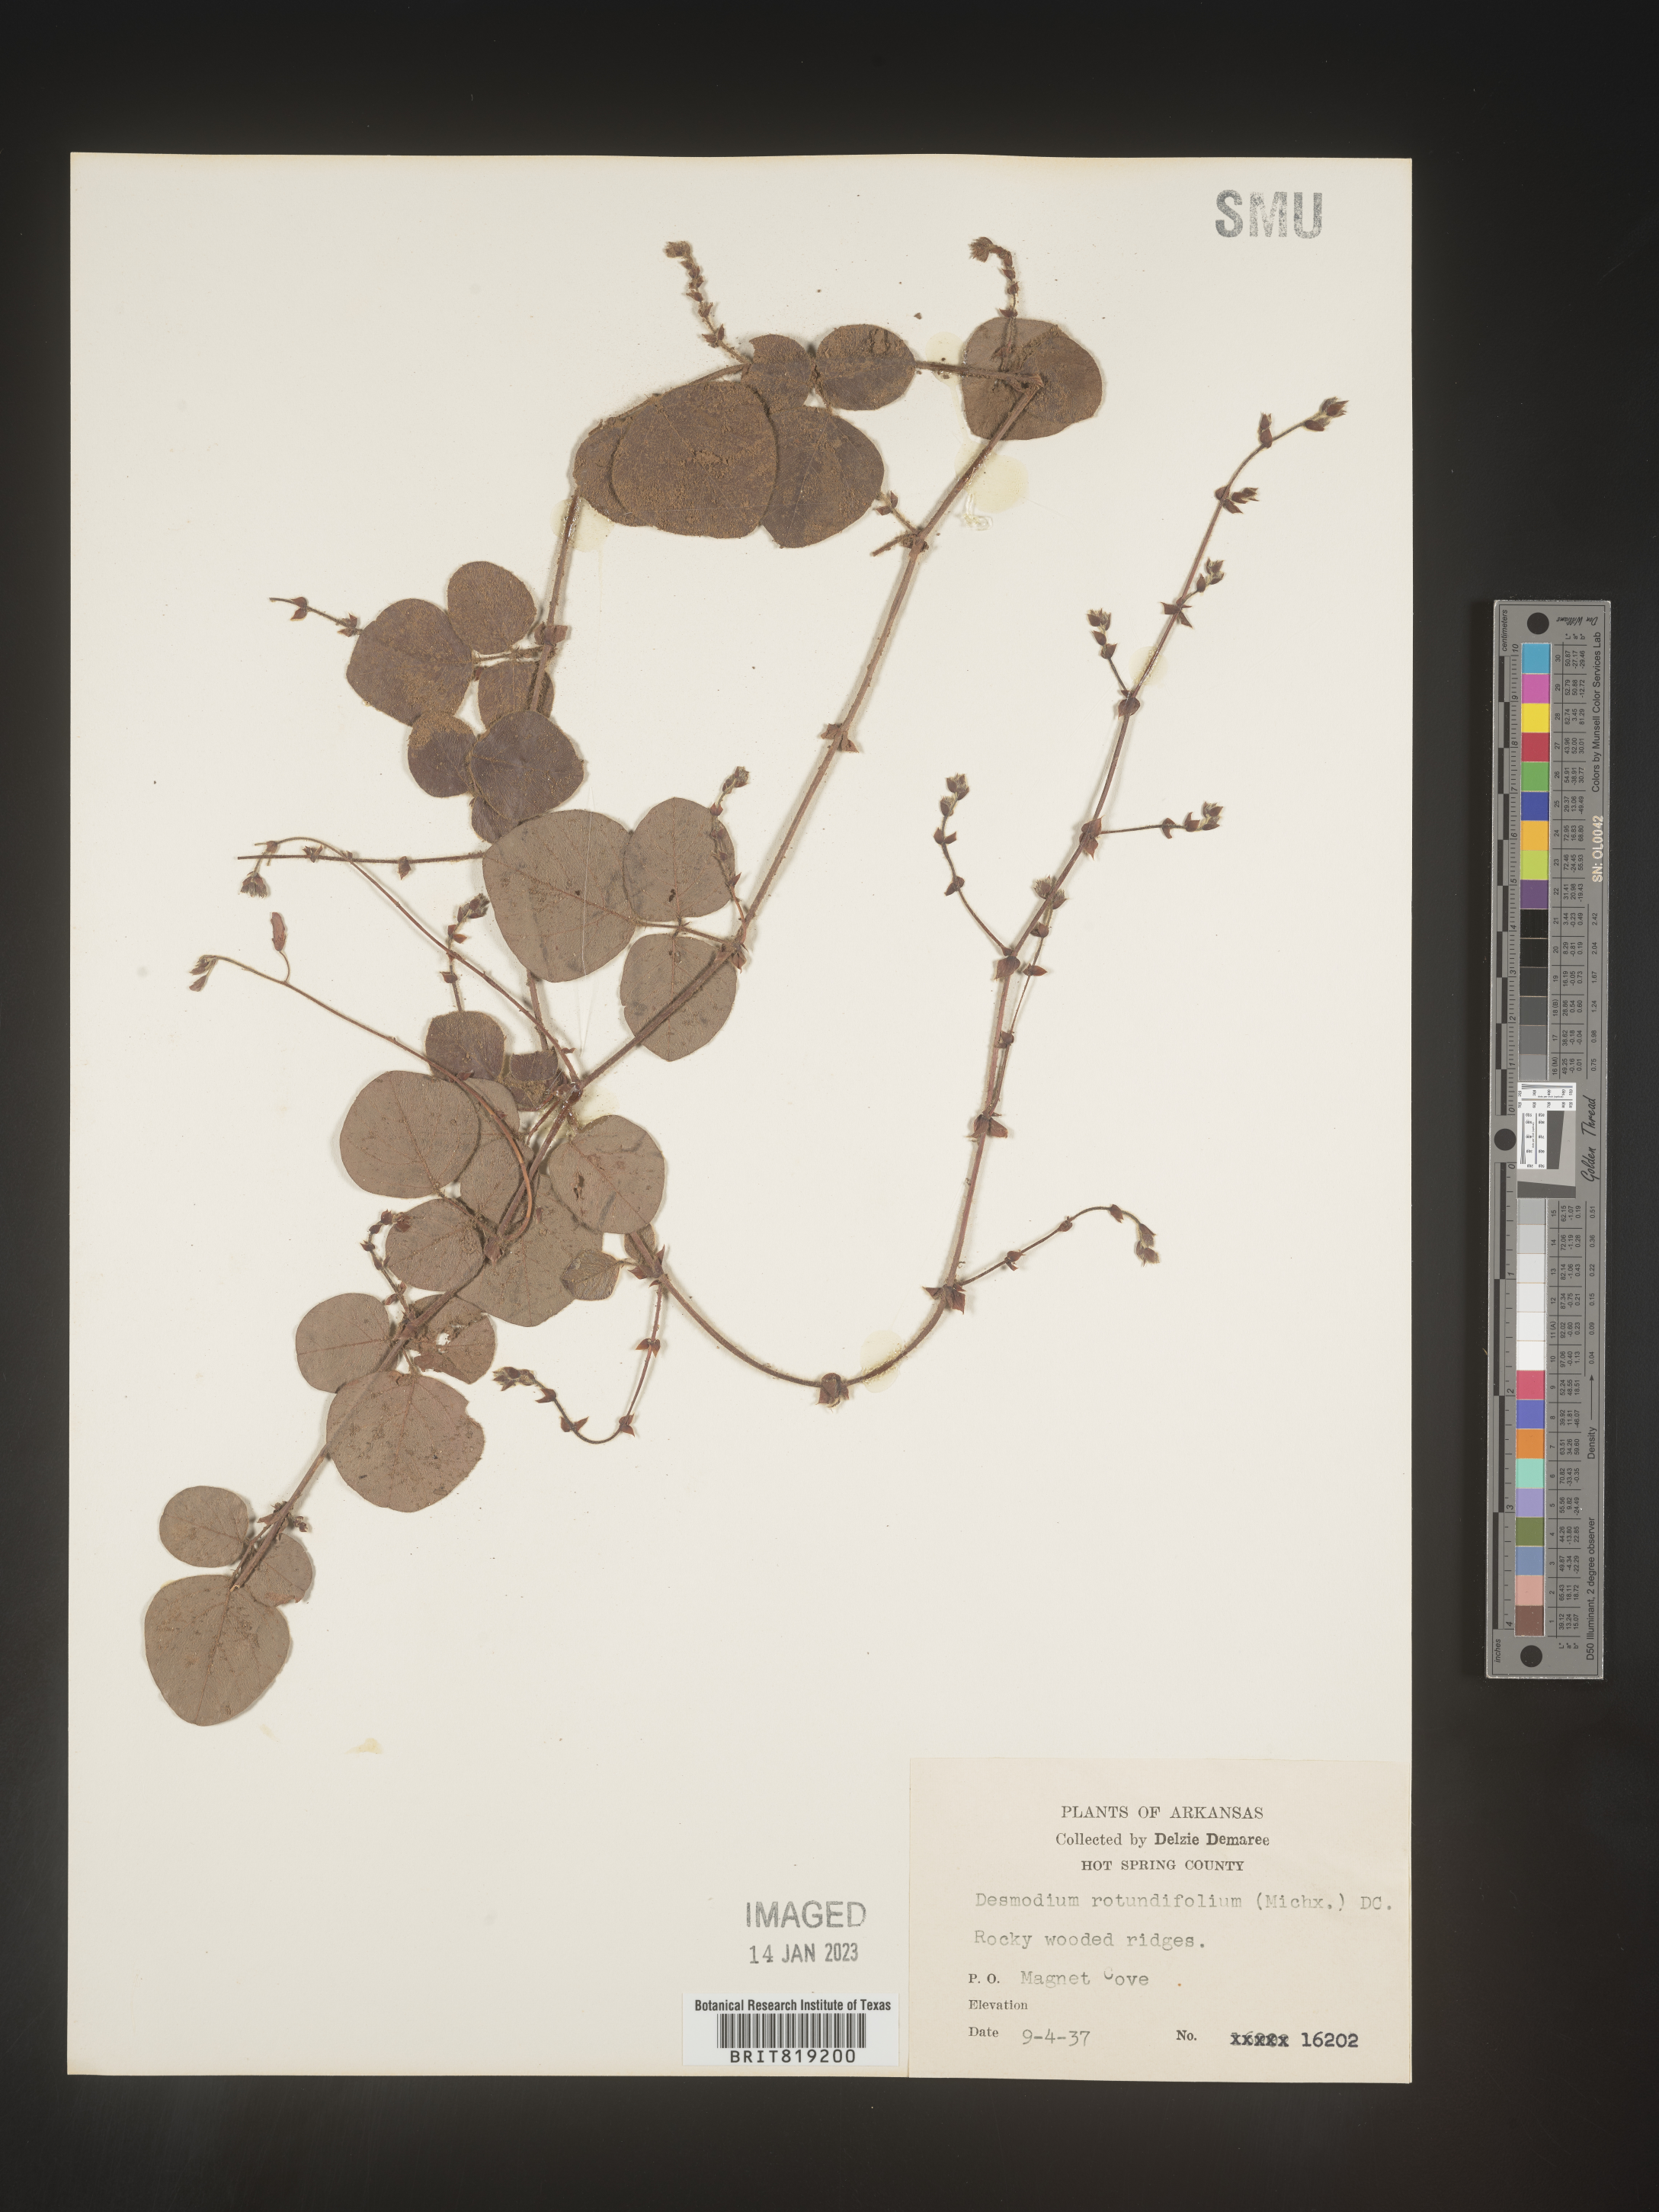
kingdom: Plantae
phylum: Tracheophyta
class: Magnoliopsida
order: Fabales
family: Fabaceae
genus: Desmodium
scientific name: Desmodium rotundifolium
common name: Dollarleaf
